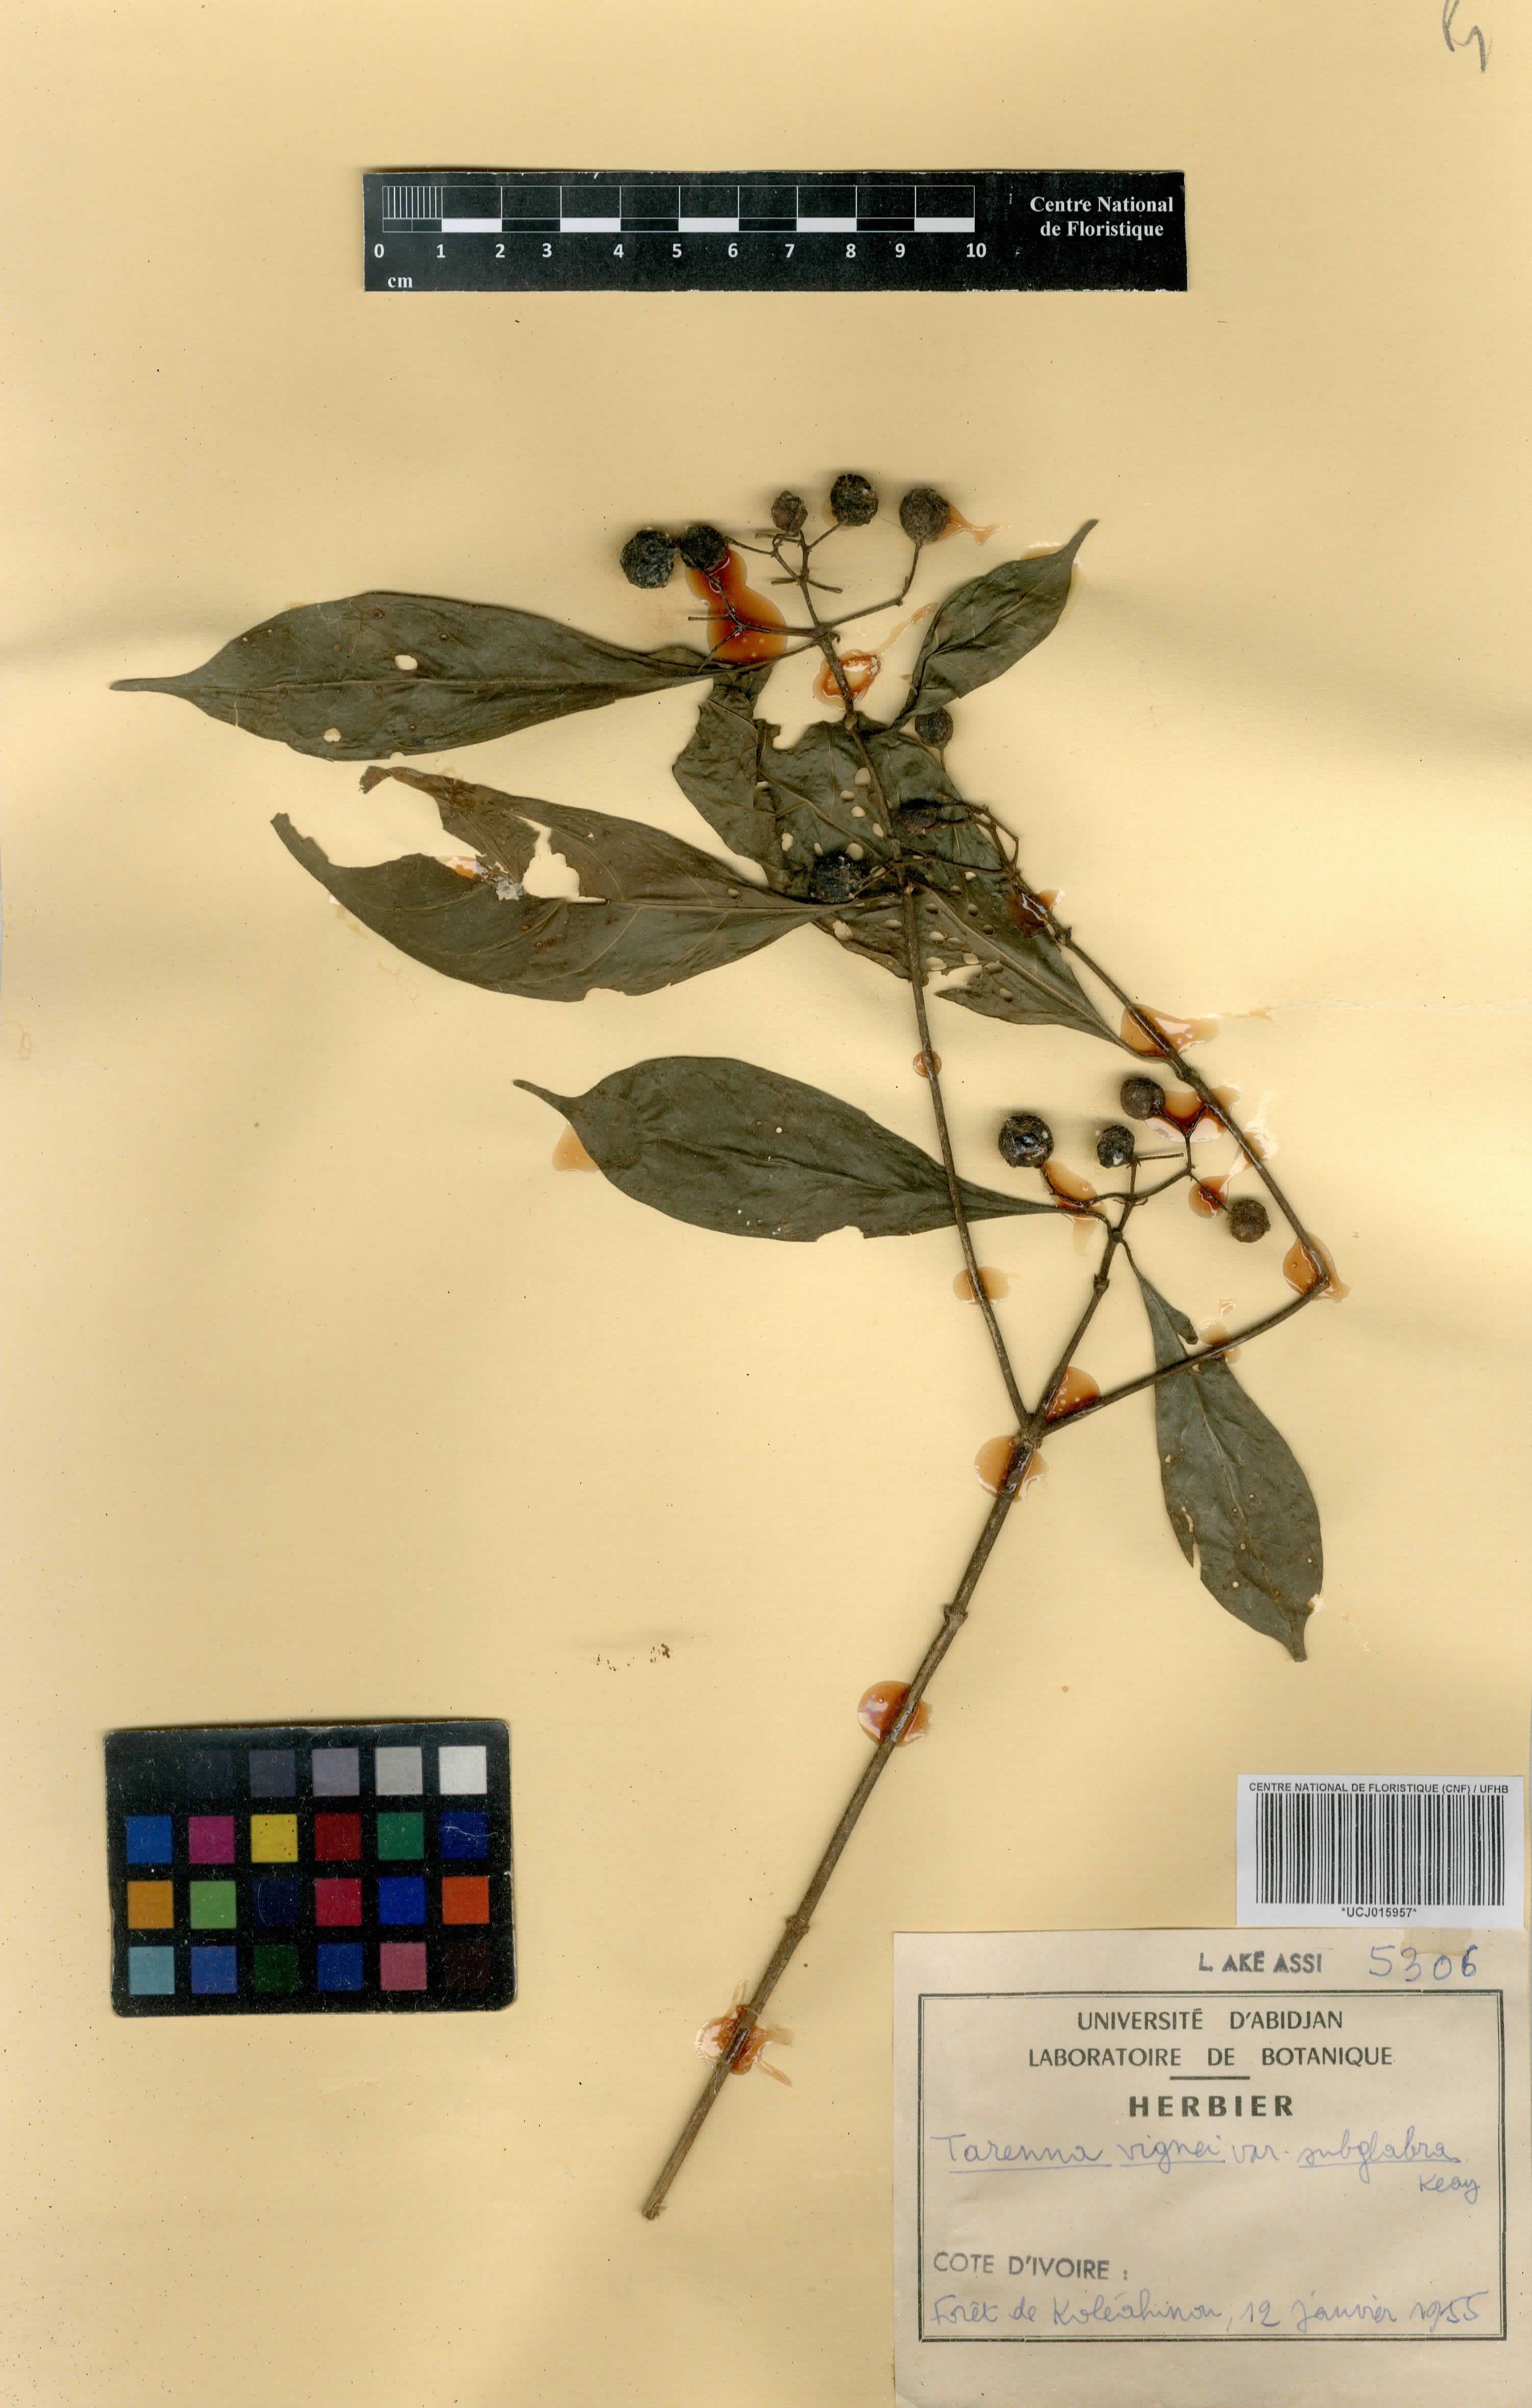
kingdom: Plantae
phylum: Tracheophyta
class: Magnoliopsida
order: Gentianales
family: Rubiaceae
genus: Tarenna
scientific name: Tarenna vignei
